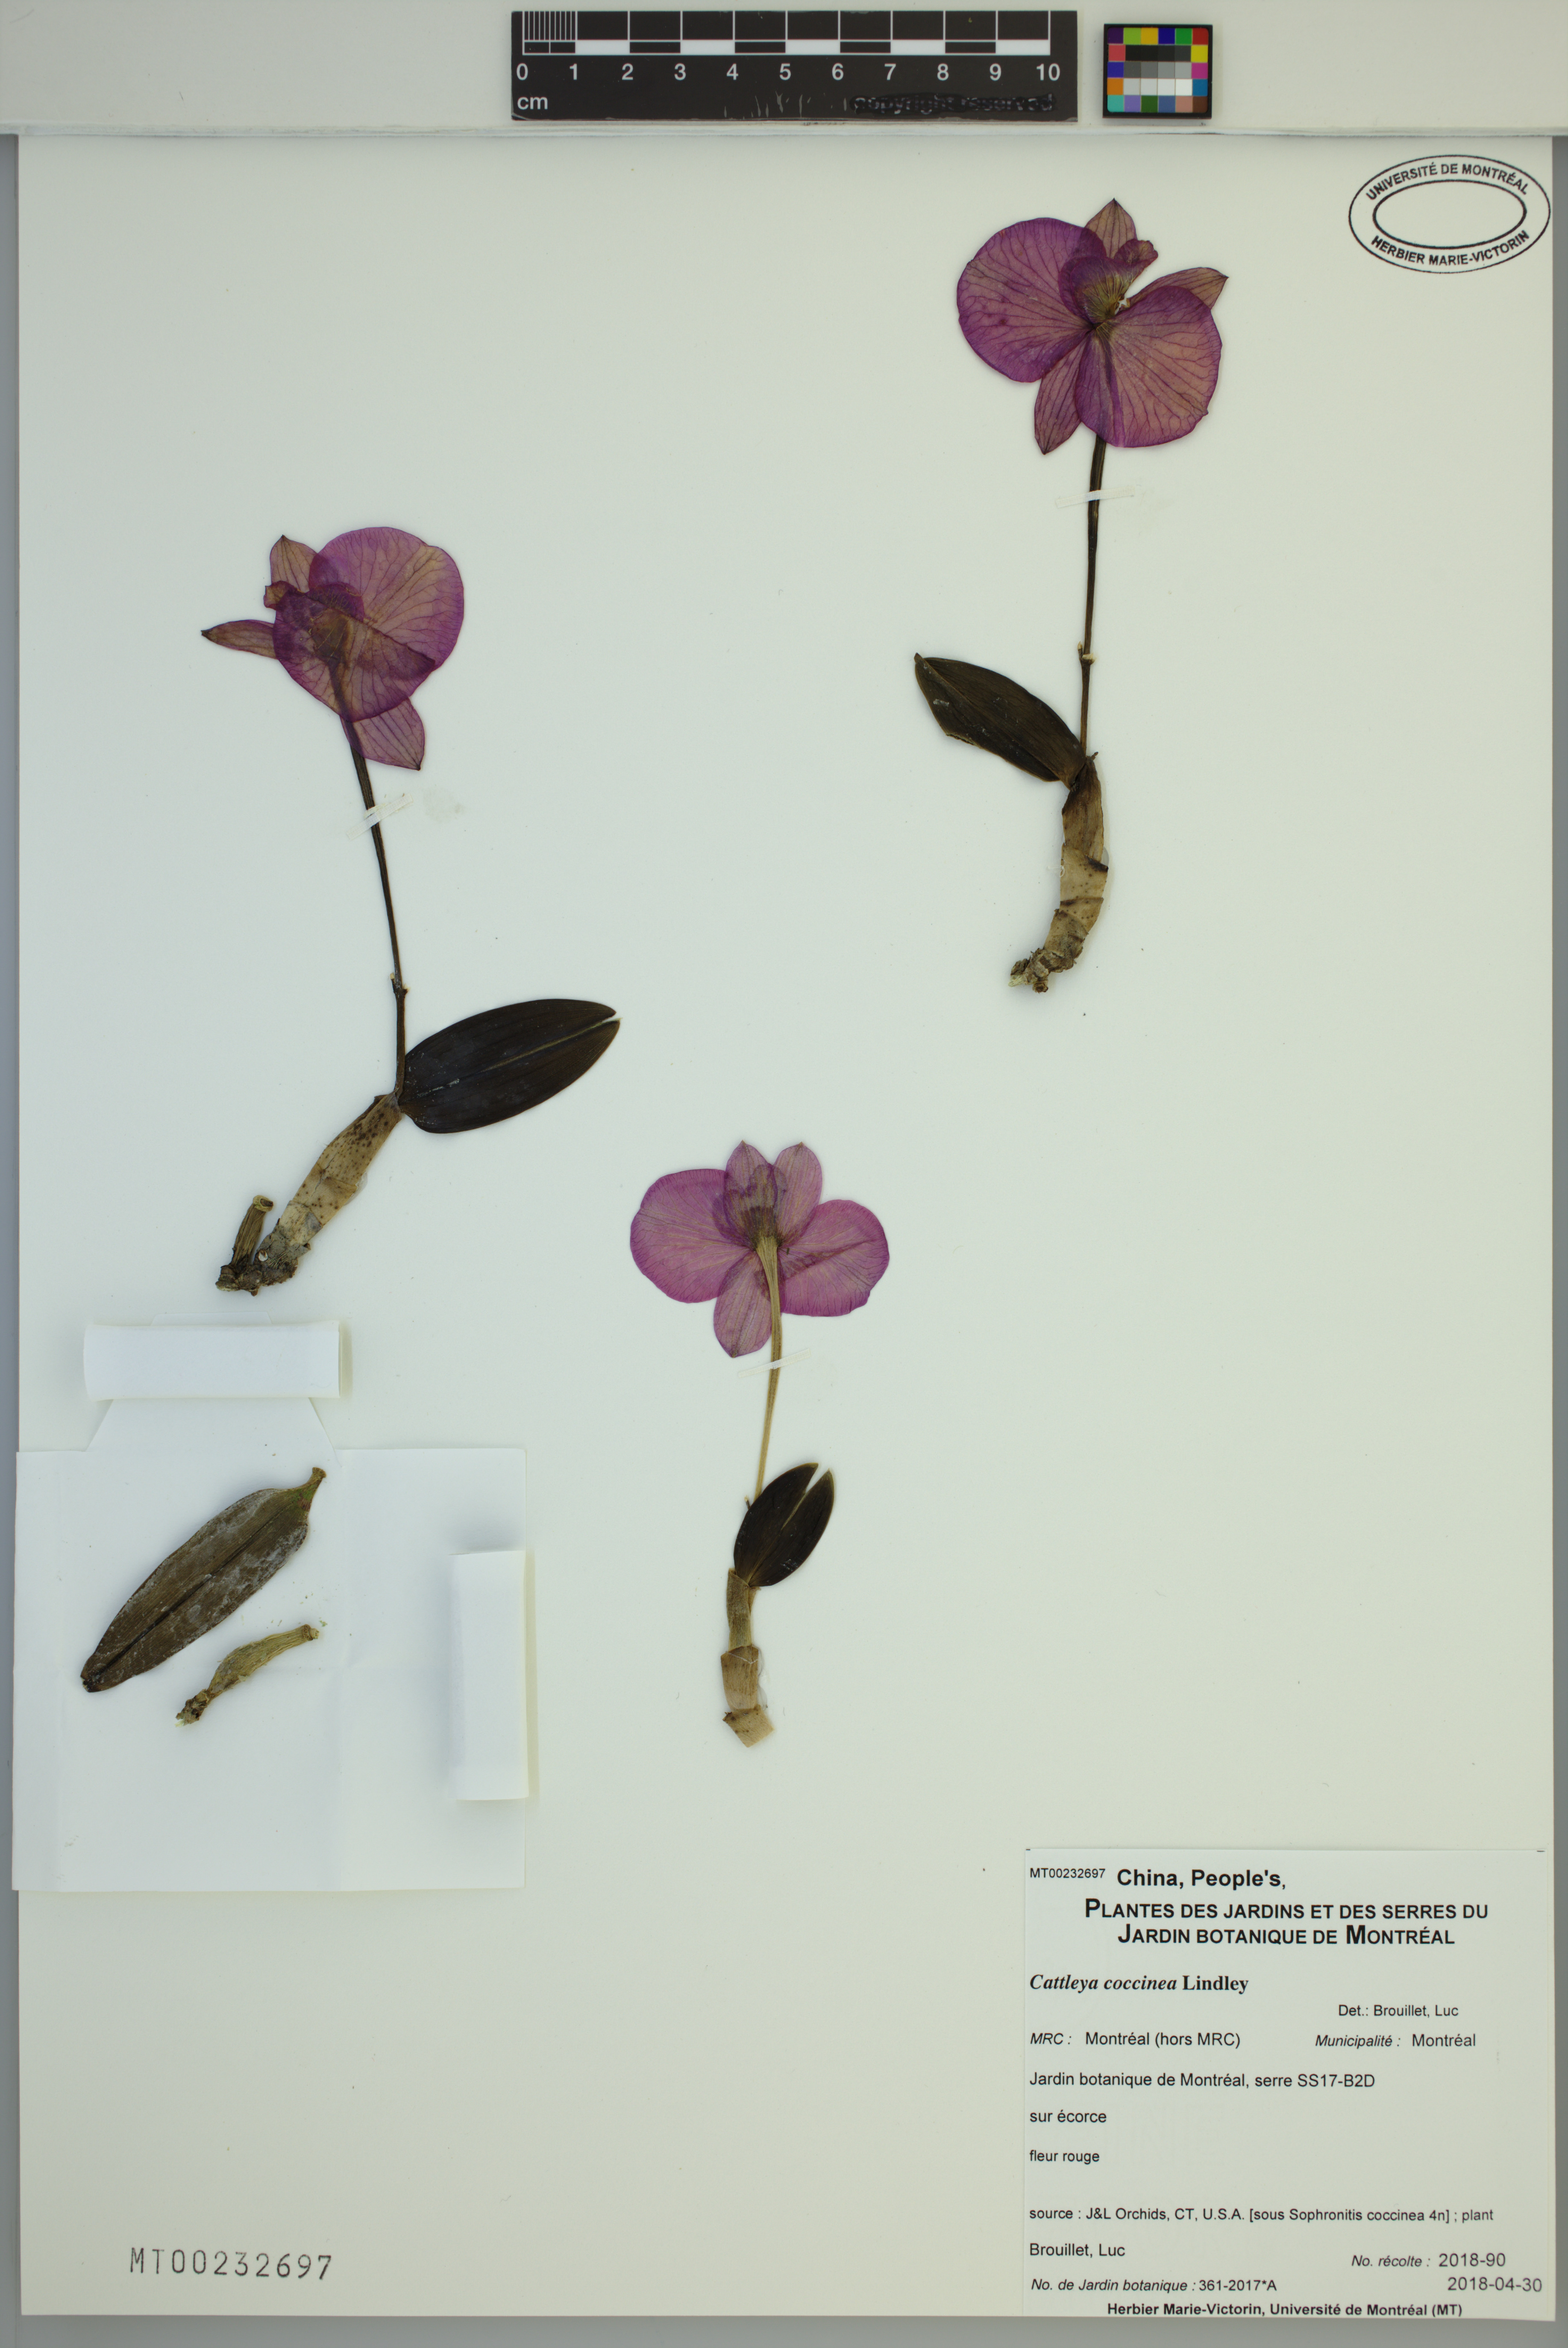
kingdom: Plantae
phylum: Tracheophyta
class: Liliopsida
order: Asparagales
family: Orchidaceae
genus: Cattleya
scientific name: Cattleya coccinea
